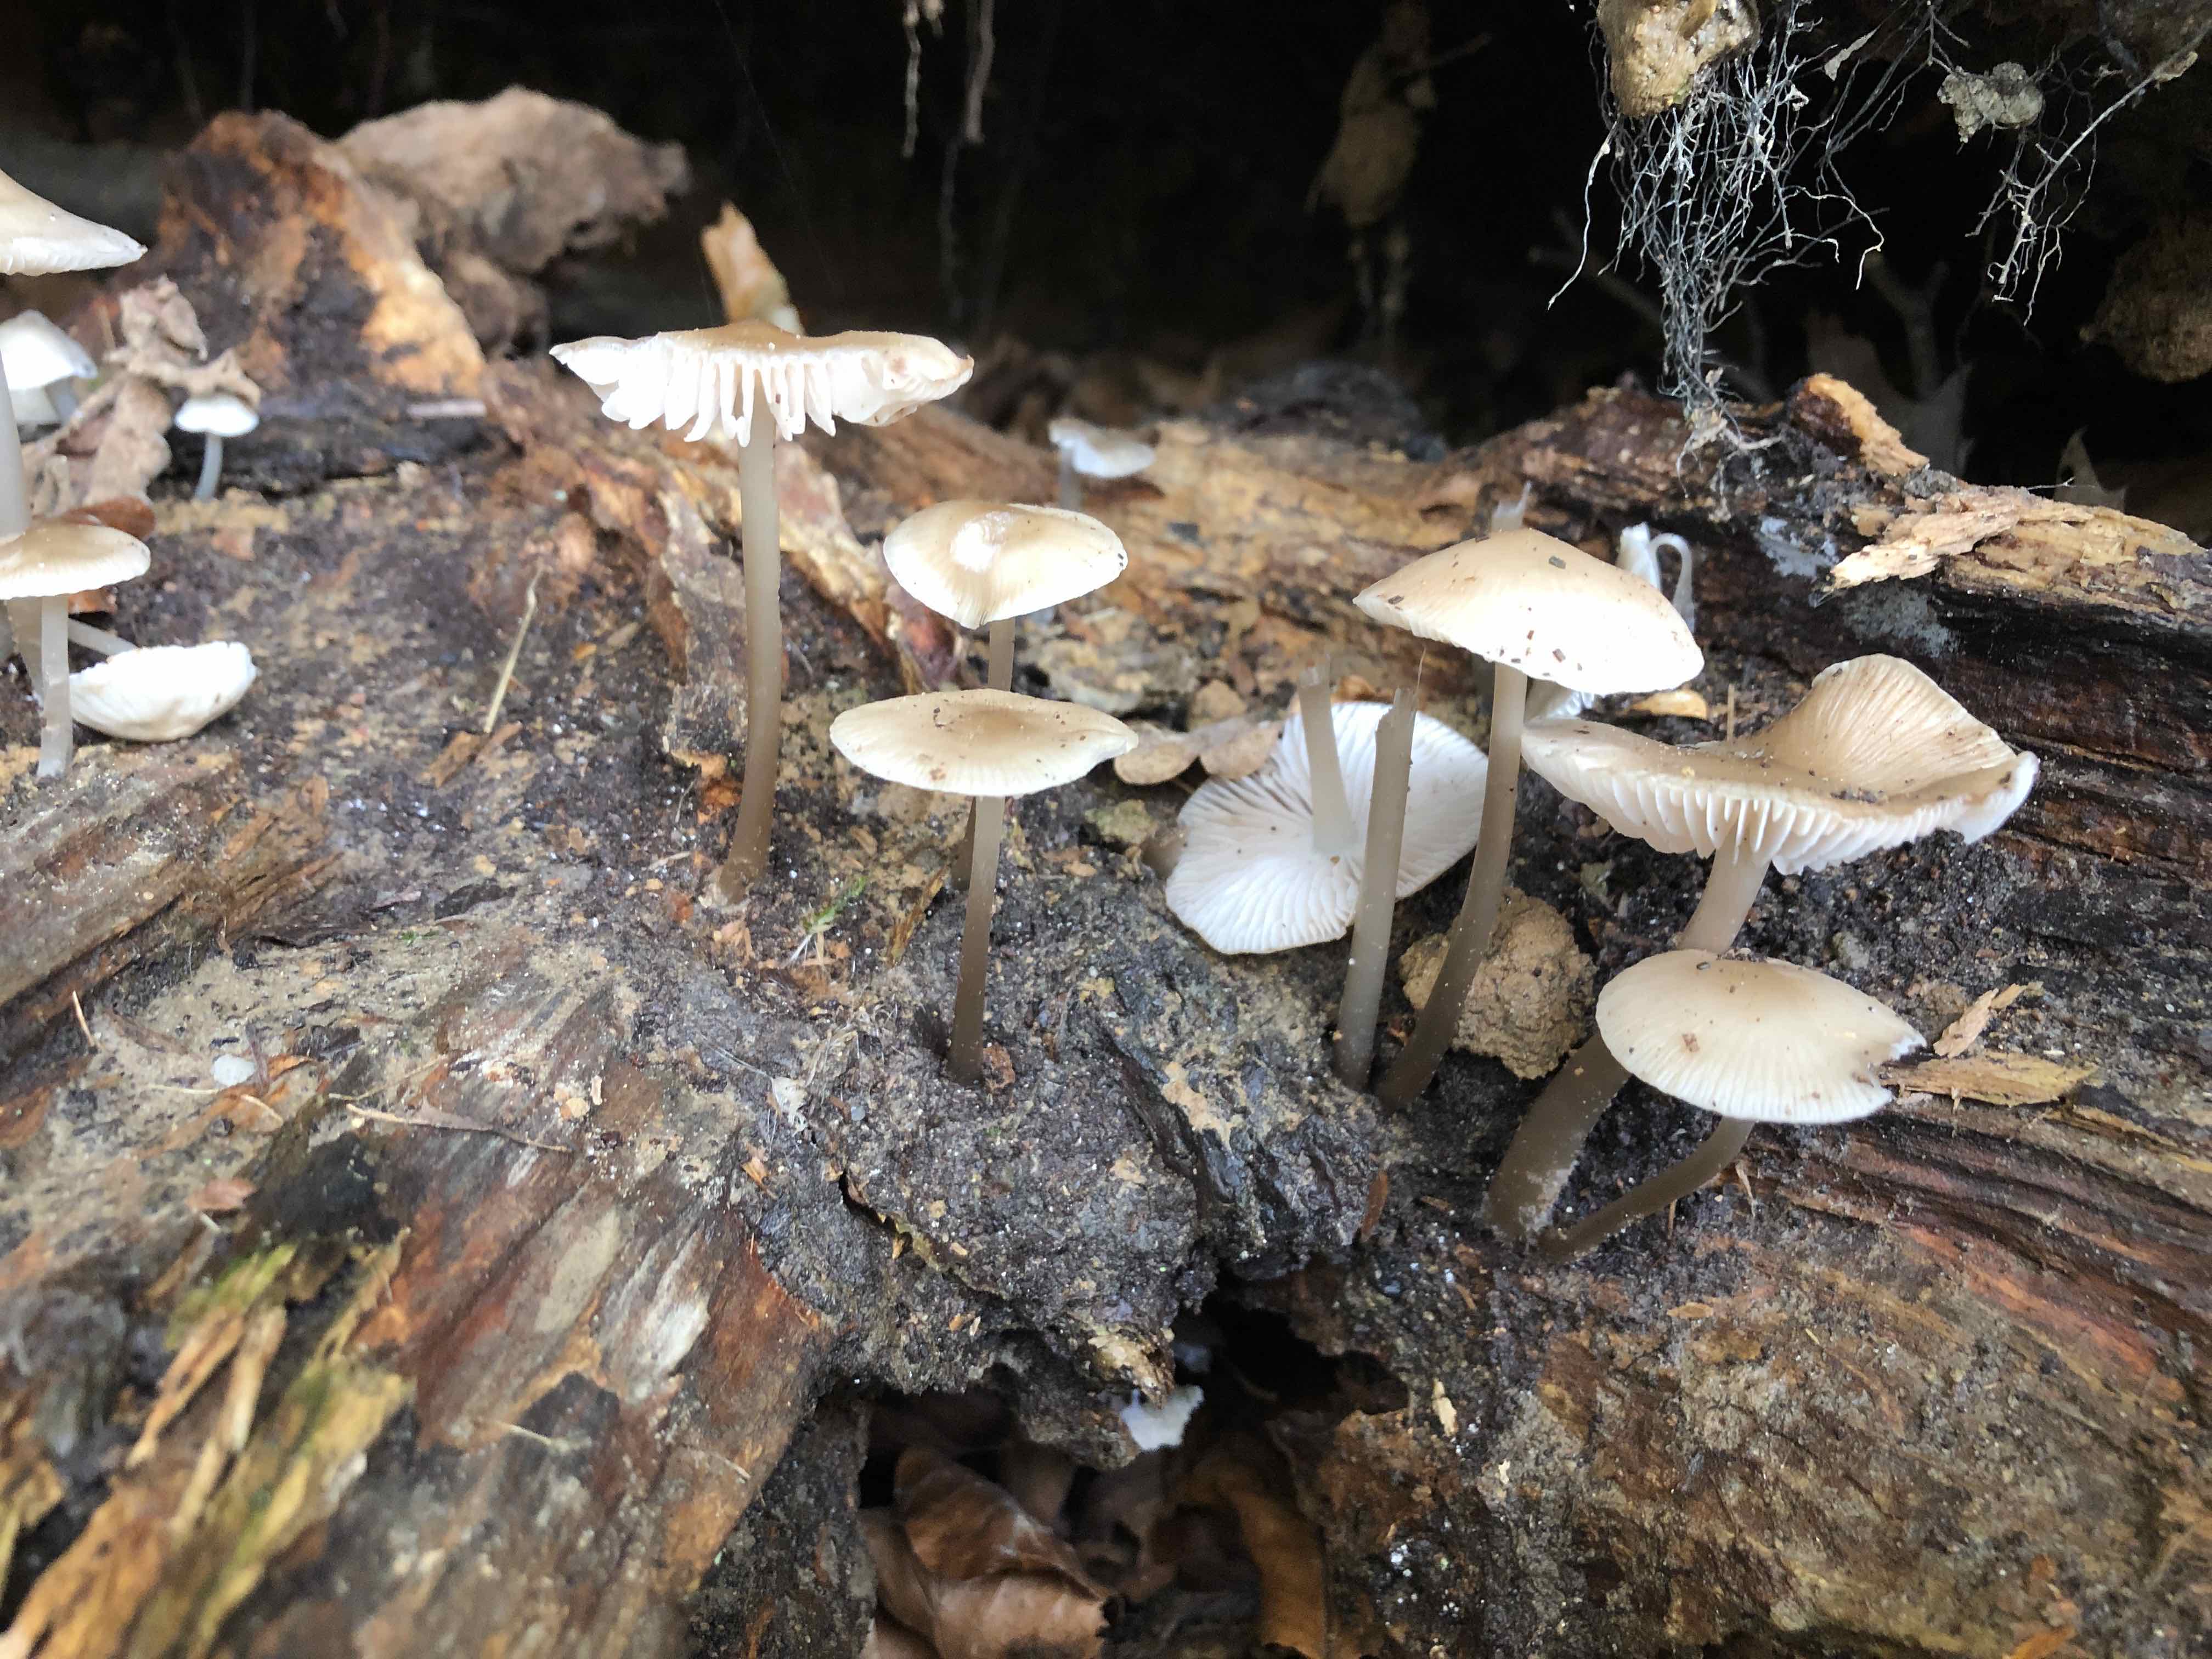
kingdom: Fungi
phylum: Basidiomycota
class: Agaricomycetes
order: Agaricales
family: Mycenaceae
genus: Mycena
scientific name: Mycena galericulata
